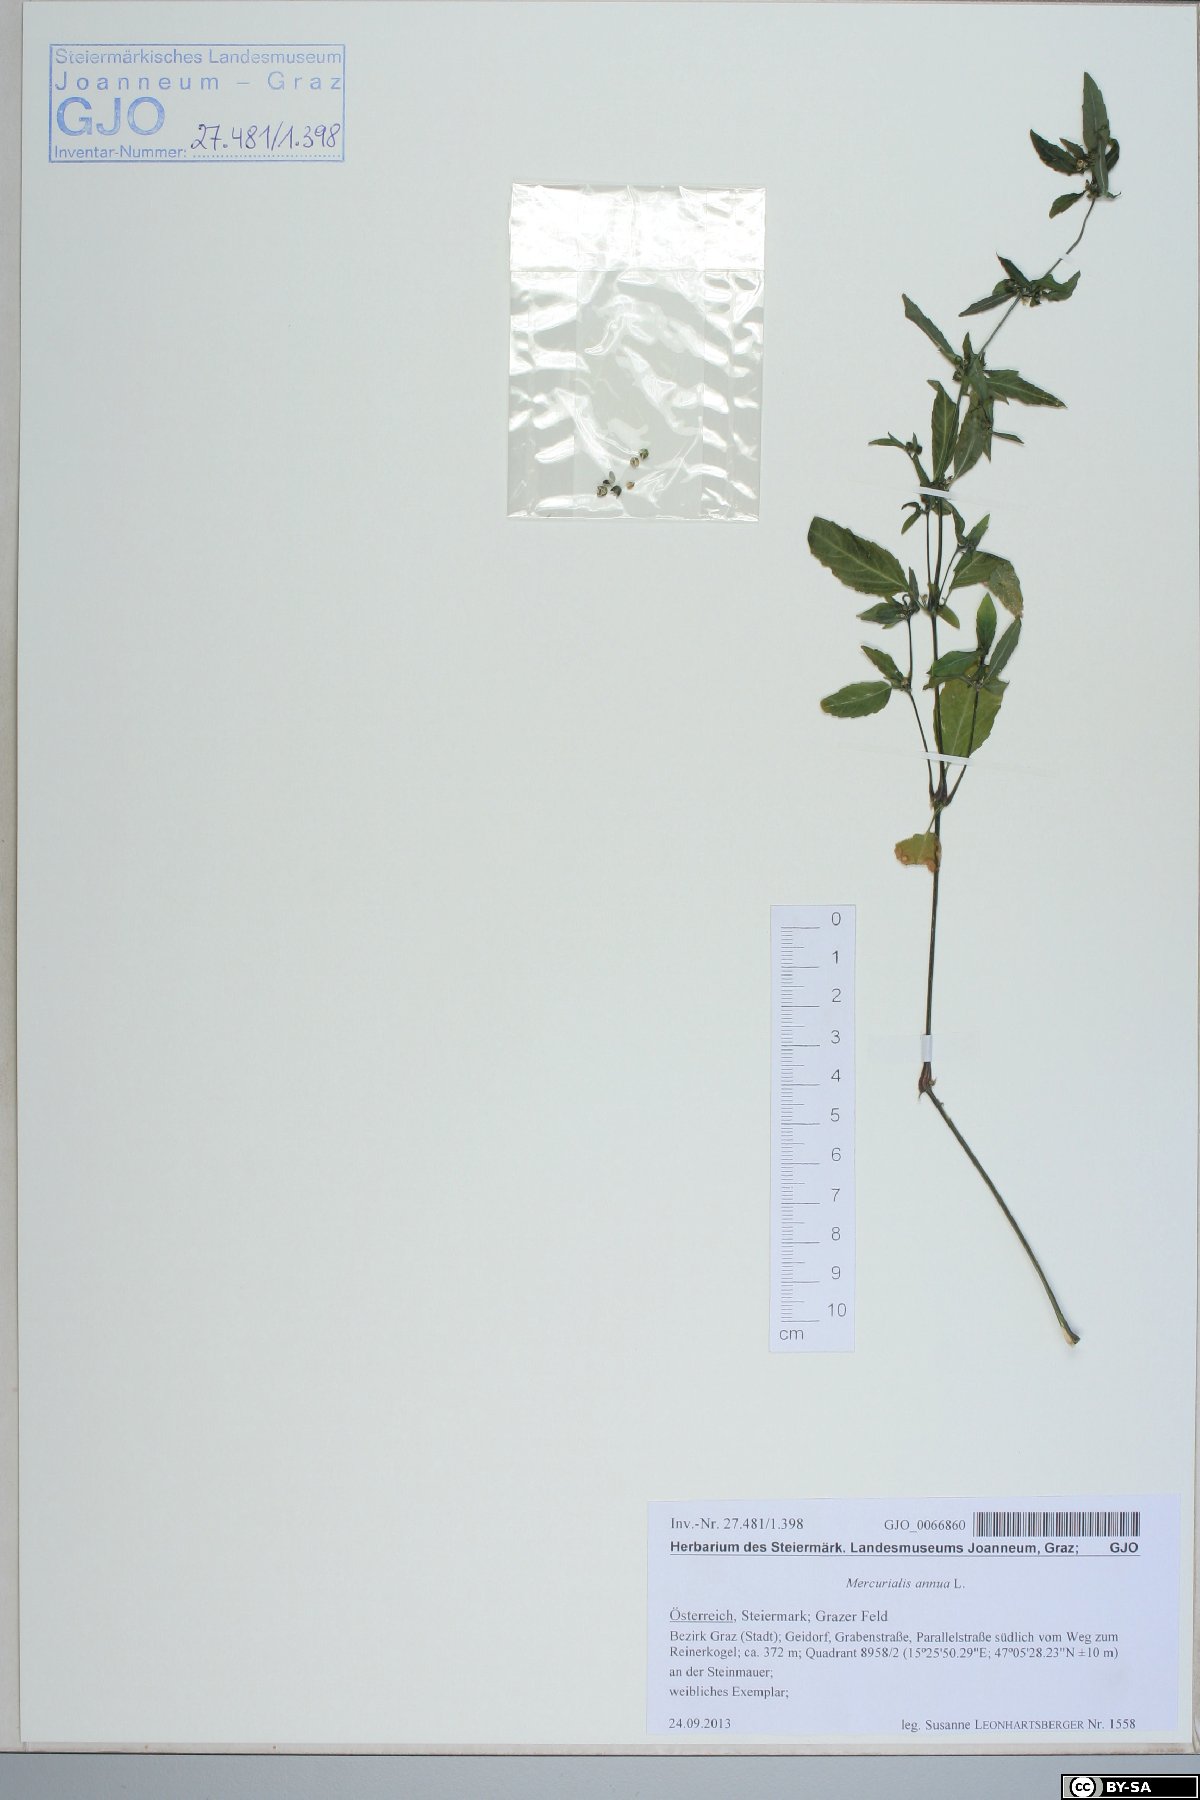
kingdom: Plantae
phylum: Tracheophyta
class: Magnoliopsida
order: Malpighiales
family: Euphorbiaceae
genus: Mercurialis
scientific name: Mercurialis annua
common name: Annual mercury
